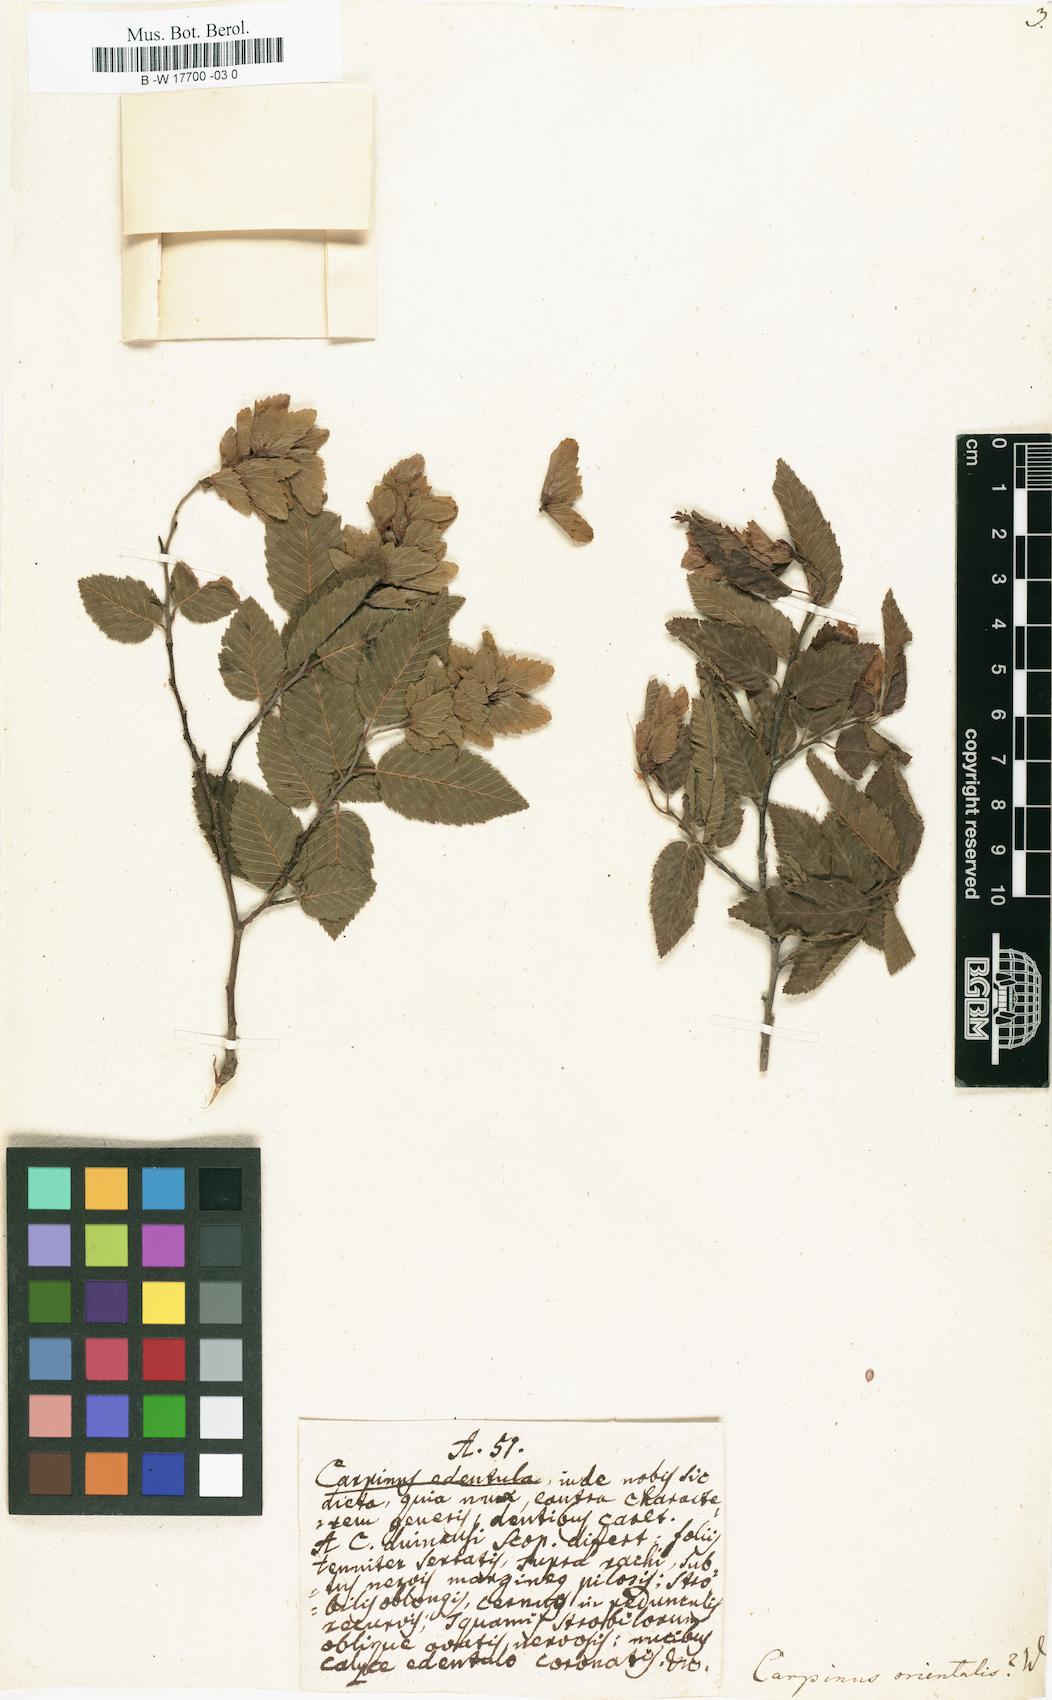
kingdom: Plantae
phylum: Tracheophyta
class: Magnoliopsida
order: Fagales
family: Betulaceae
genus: Carpinus
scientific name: Carpinus orientalis
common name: Eastern hornbeam
